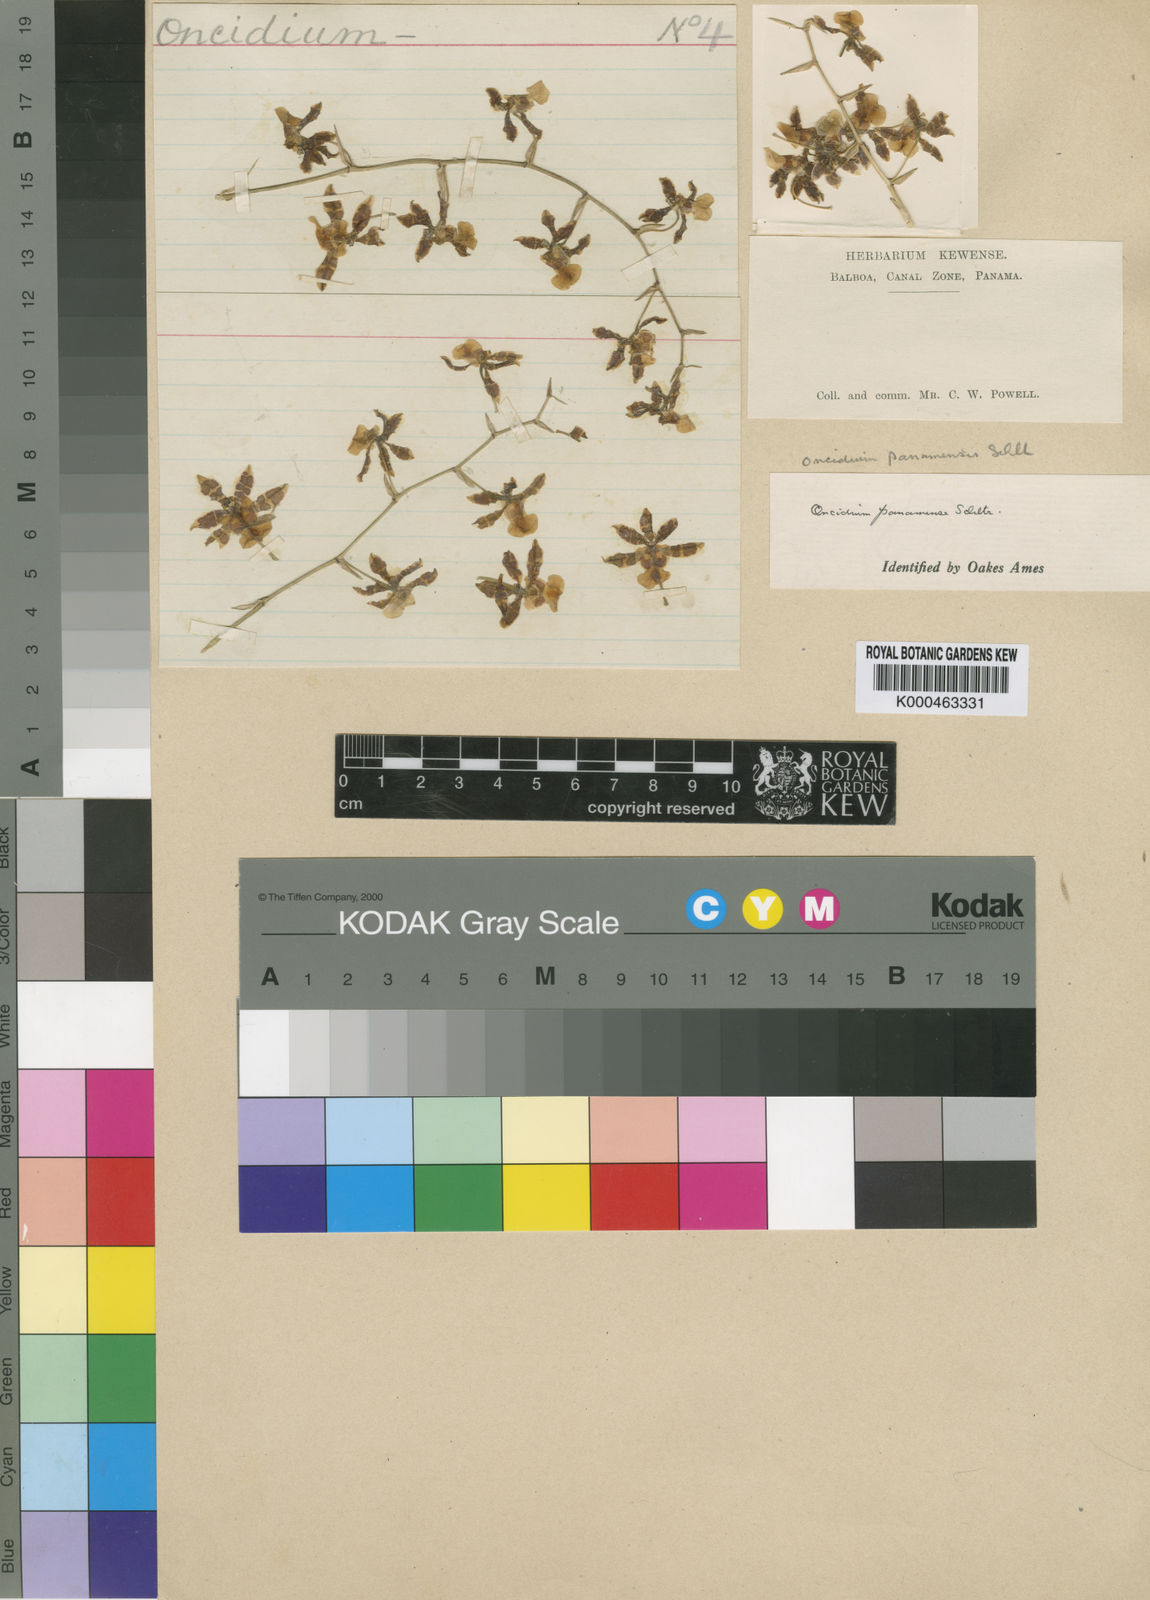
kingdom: Plantae
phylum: Tracheophyta
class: Liliopsida
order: Asparagales
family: Orchidaceae
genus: Oncidium
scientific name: Oncidium panamense
